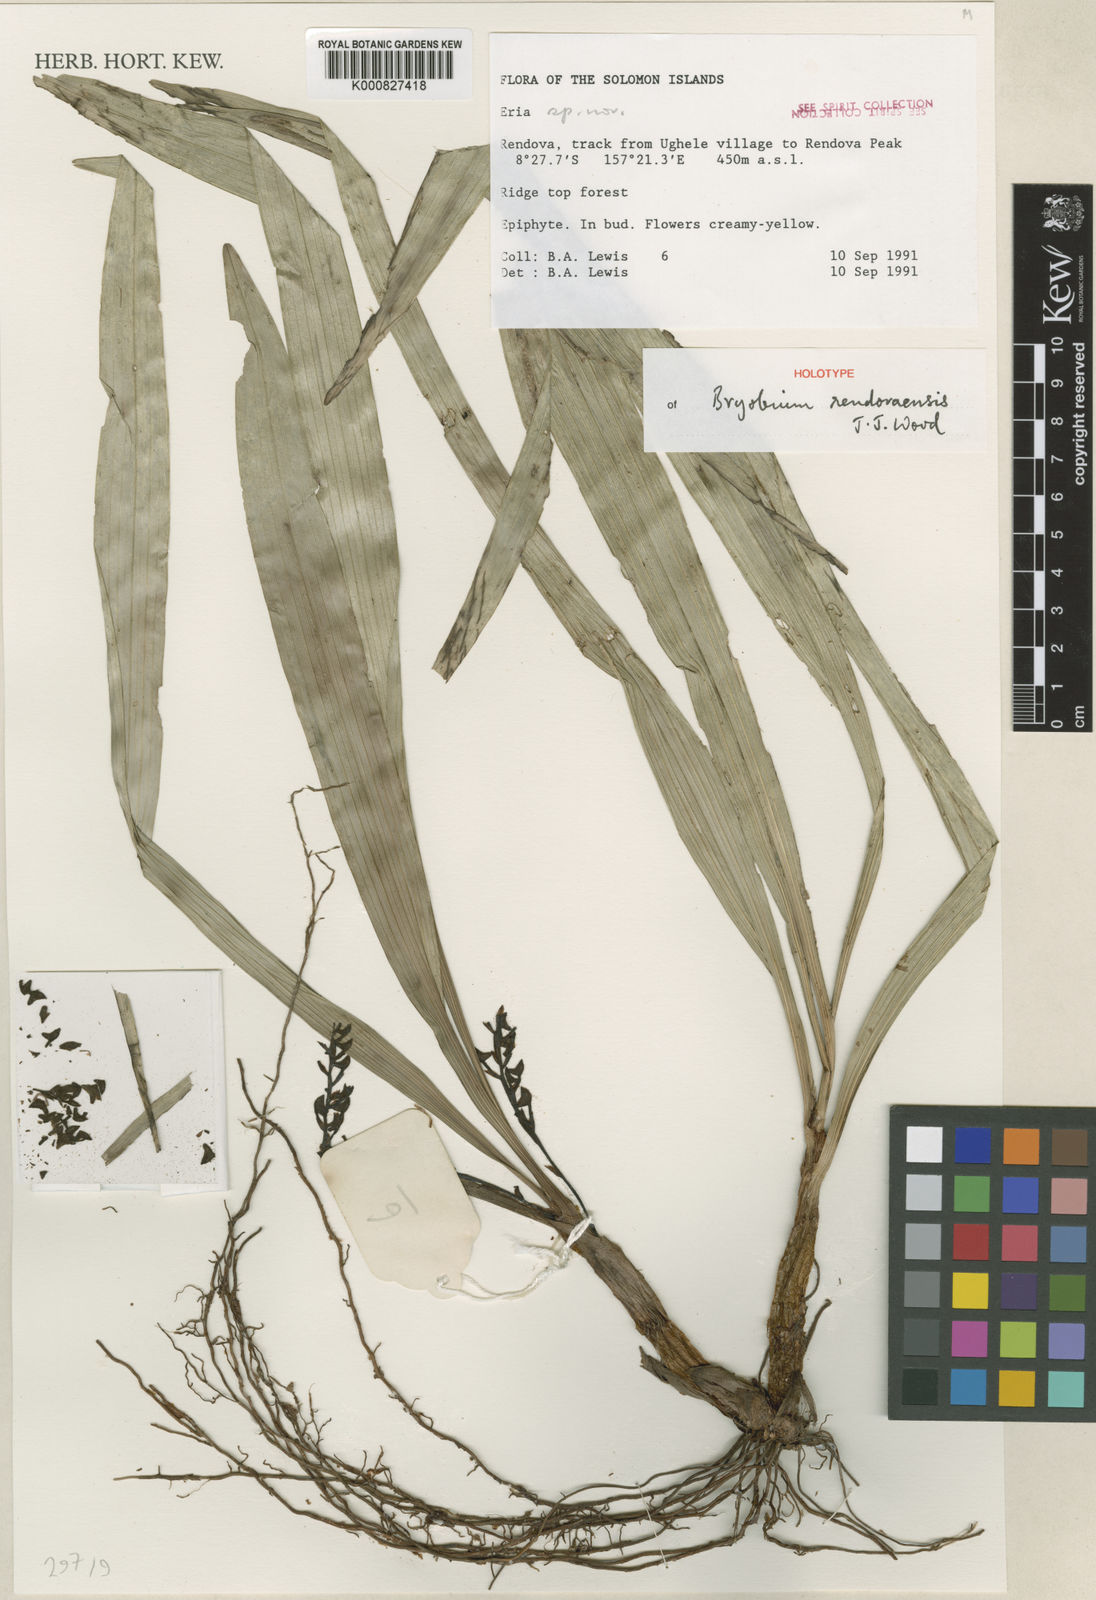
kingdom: Plantae
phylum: Tracheophyta
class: Liliopsida
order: Asparagales
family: Orchidaceae
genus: Eria
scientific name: Eria
